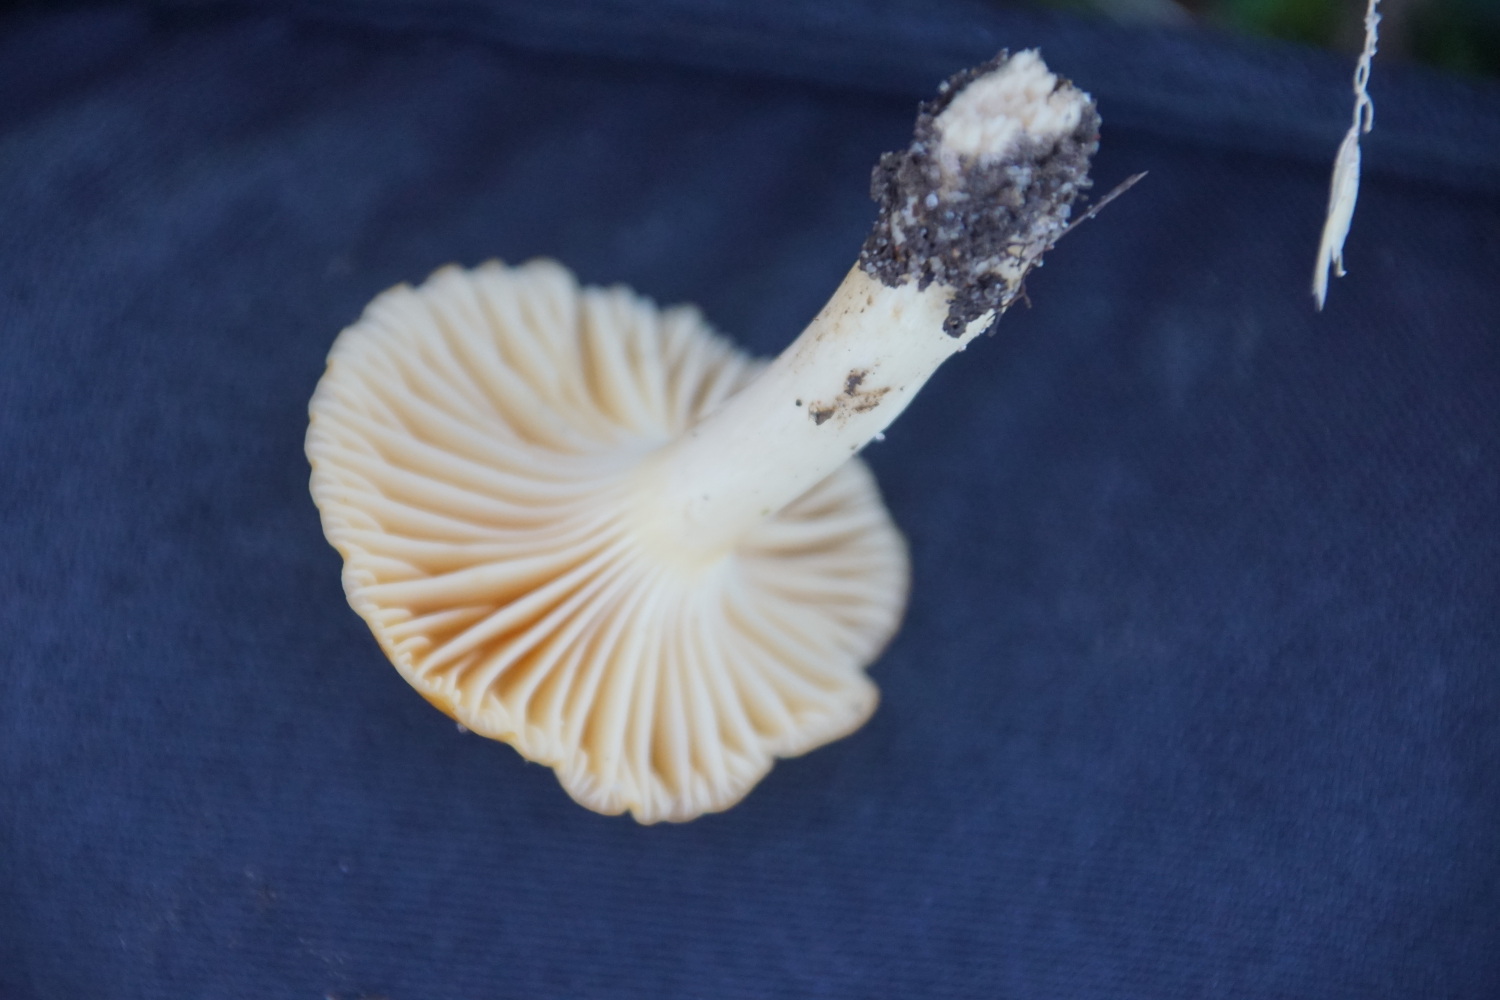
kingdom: Fungi
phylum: Basidiomycota
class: Agaricomycetes
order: Agaricales
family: Hygrophoraceae
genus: Cuphophyllus
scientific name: Cuphophyllus pratensis
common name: eng-vokshat
